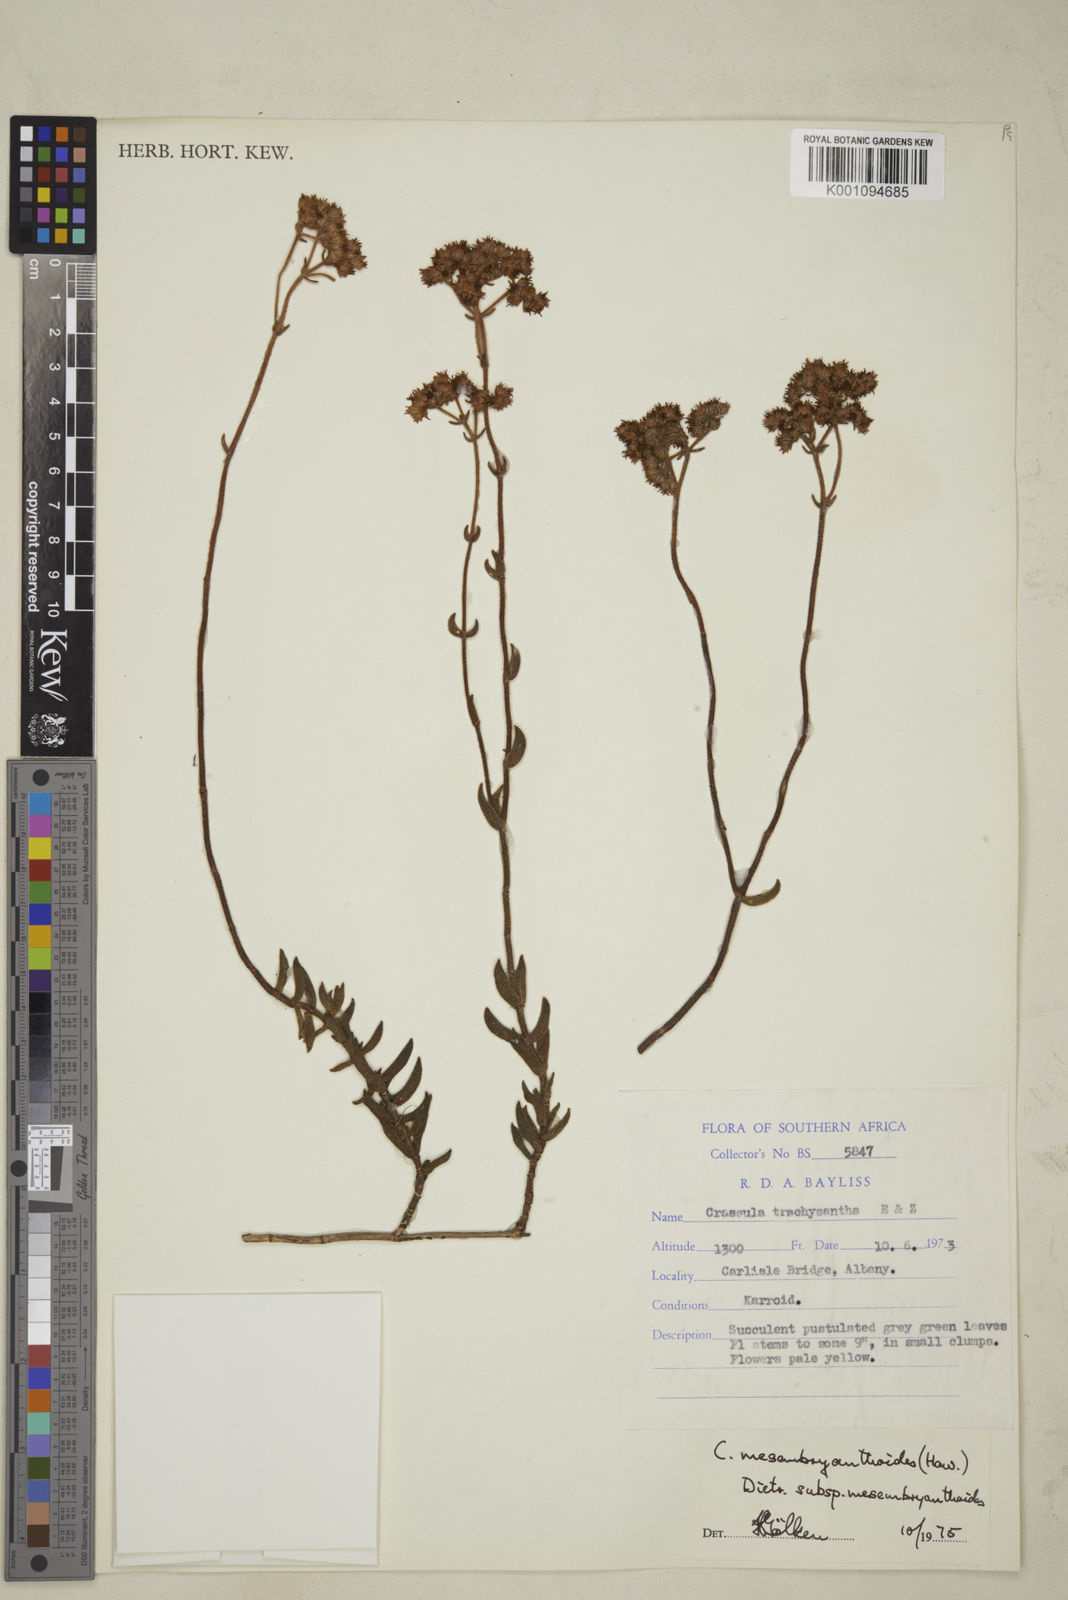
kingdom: Plantae
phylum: Tracheophyta
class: Magnoliopsida
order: Saxifragales
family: Crassulaceae
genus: Crassula
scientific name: Crassula
